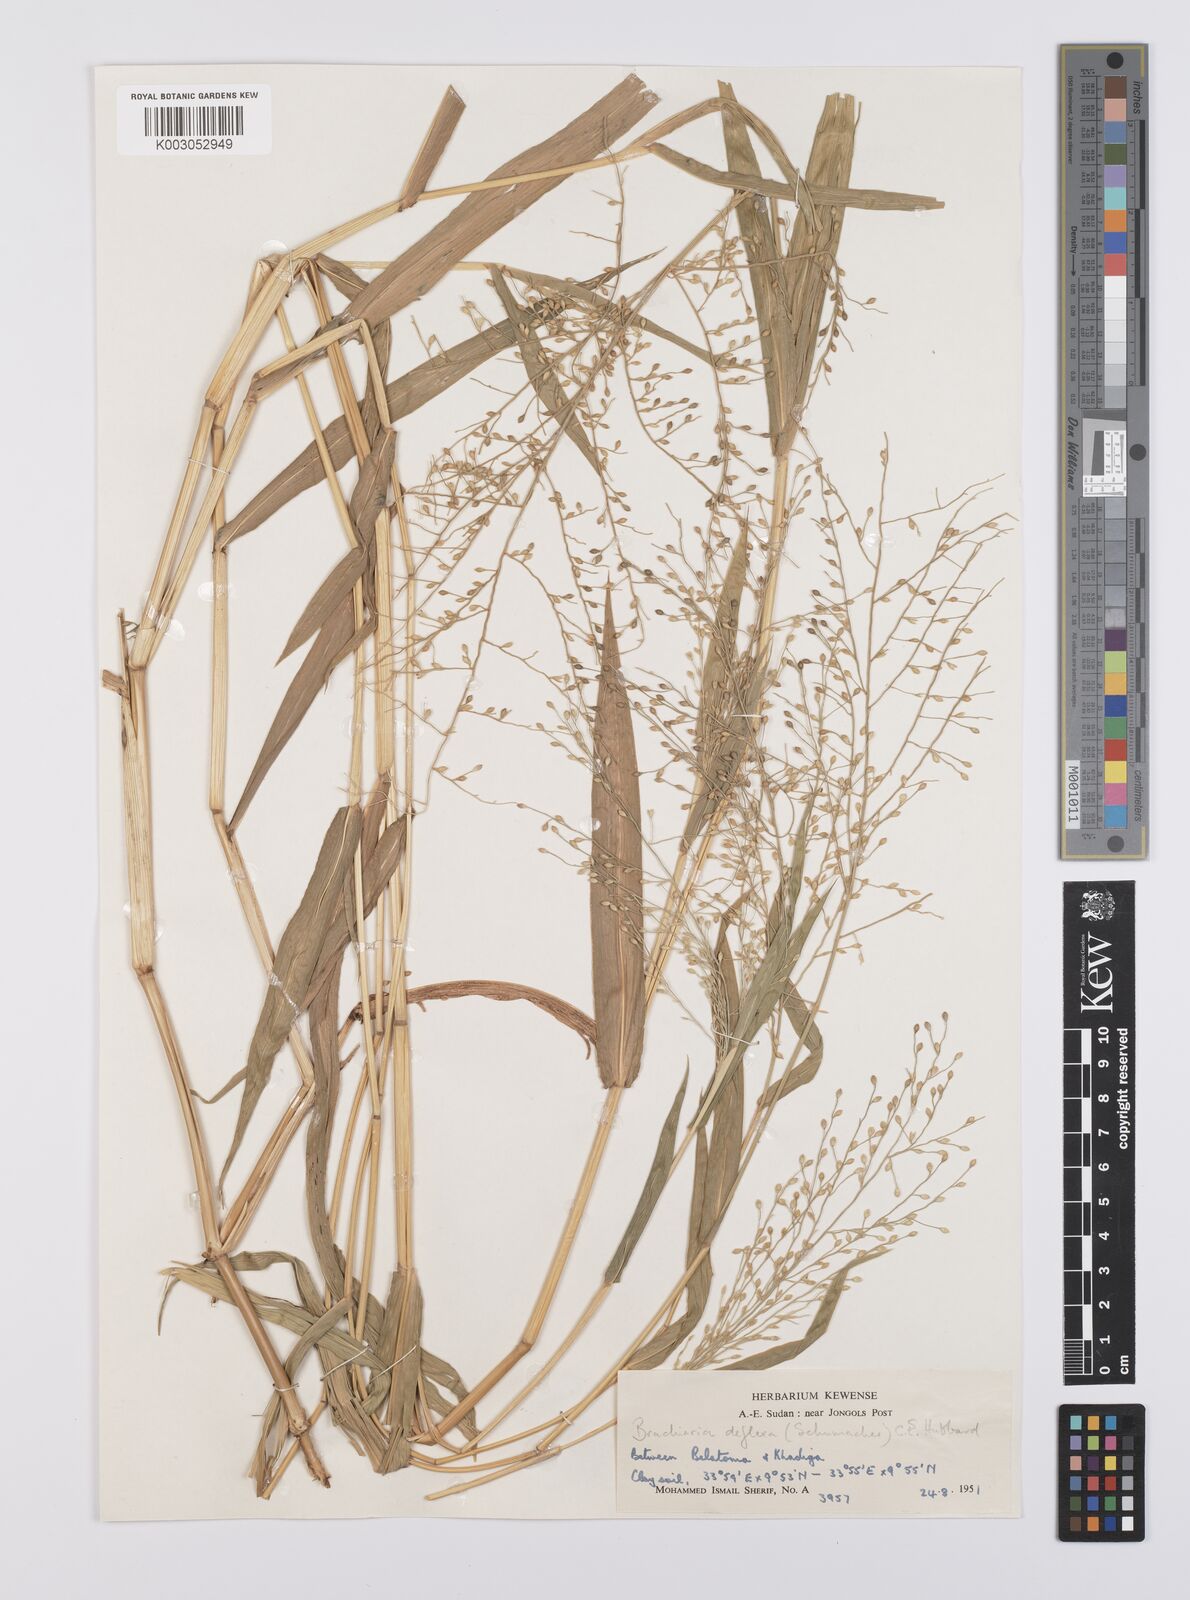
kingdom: Plantae
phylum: Tracheophyta
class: Liliopsida
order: Poales
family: Poaceae
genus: Urochloa
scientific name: Urochloa deflexa
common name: Guinea millet
